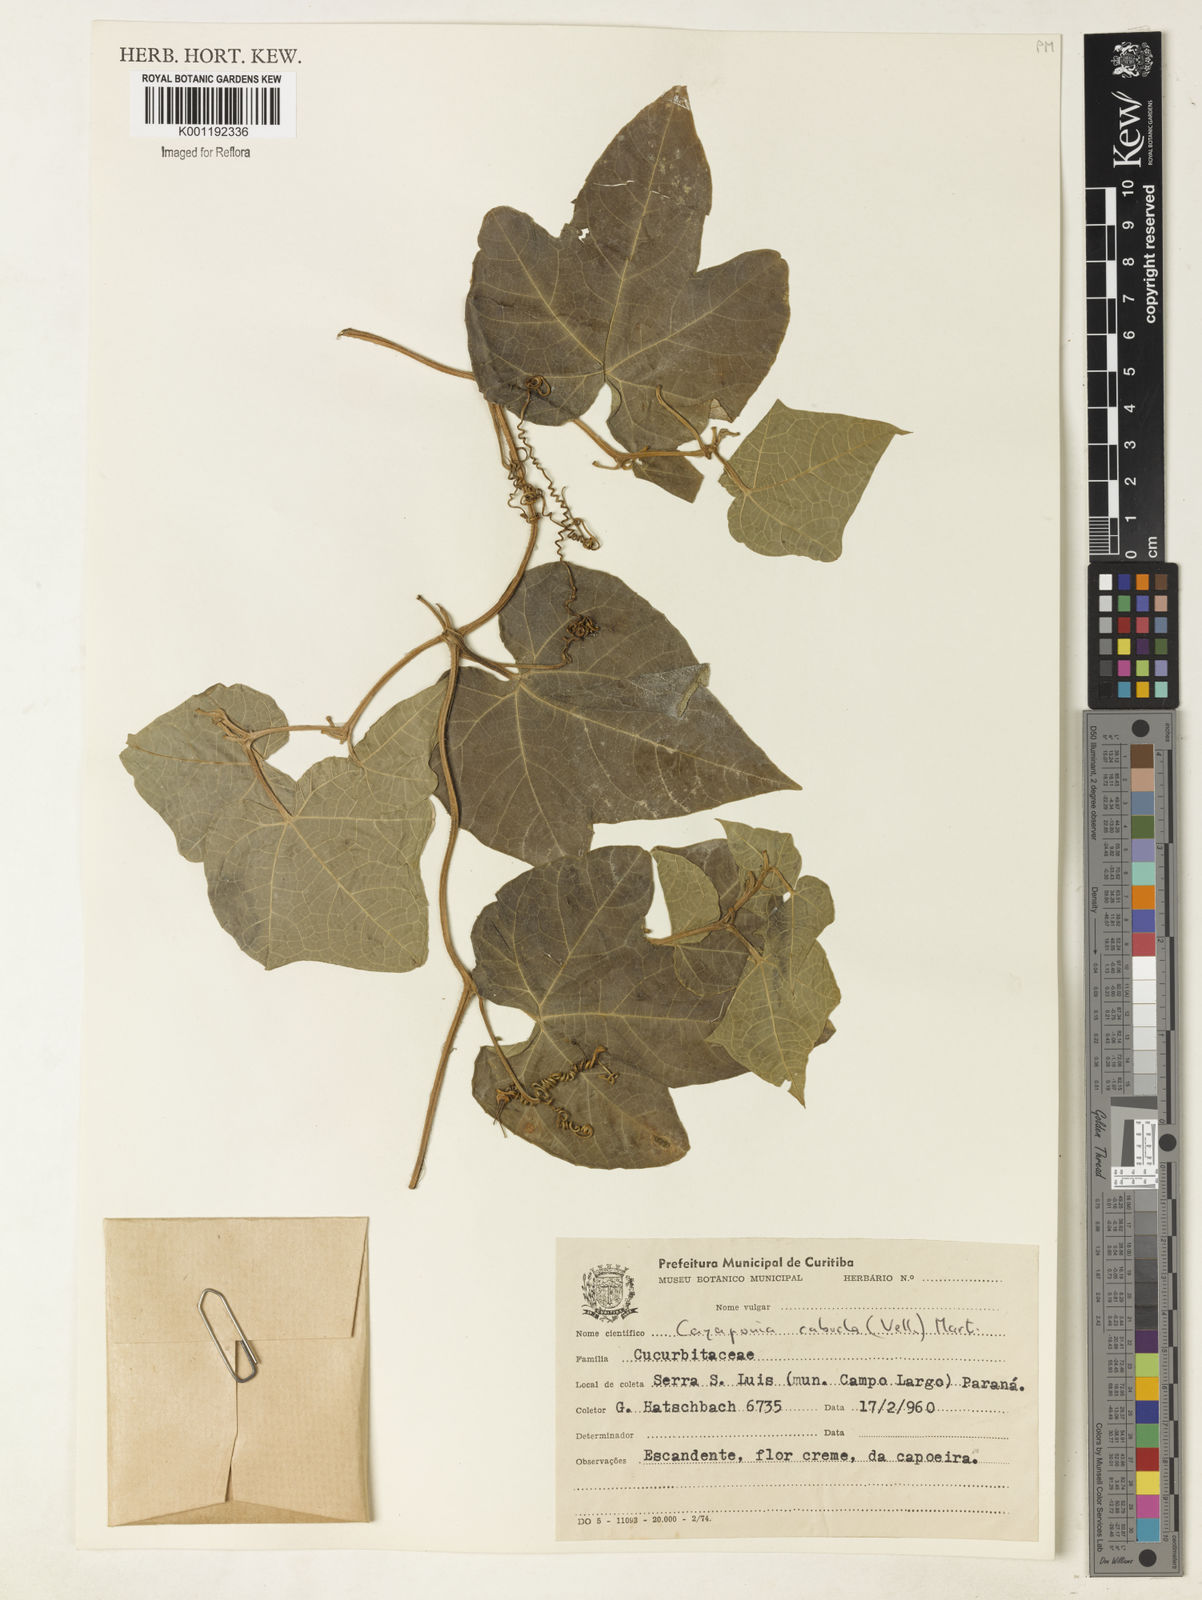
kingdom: Plantae
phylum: Tracheophyta
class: Magnoliopsida
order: Cucurbitales
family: Cucurbitaceae
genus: Cayaponia
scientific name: Cayaponia cabocla
